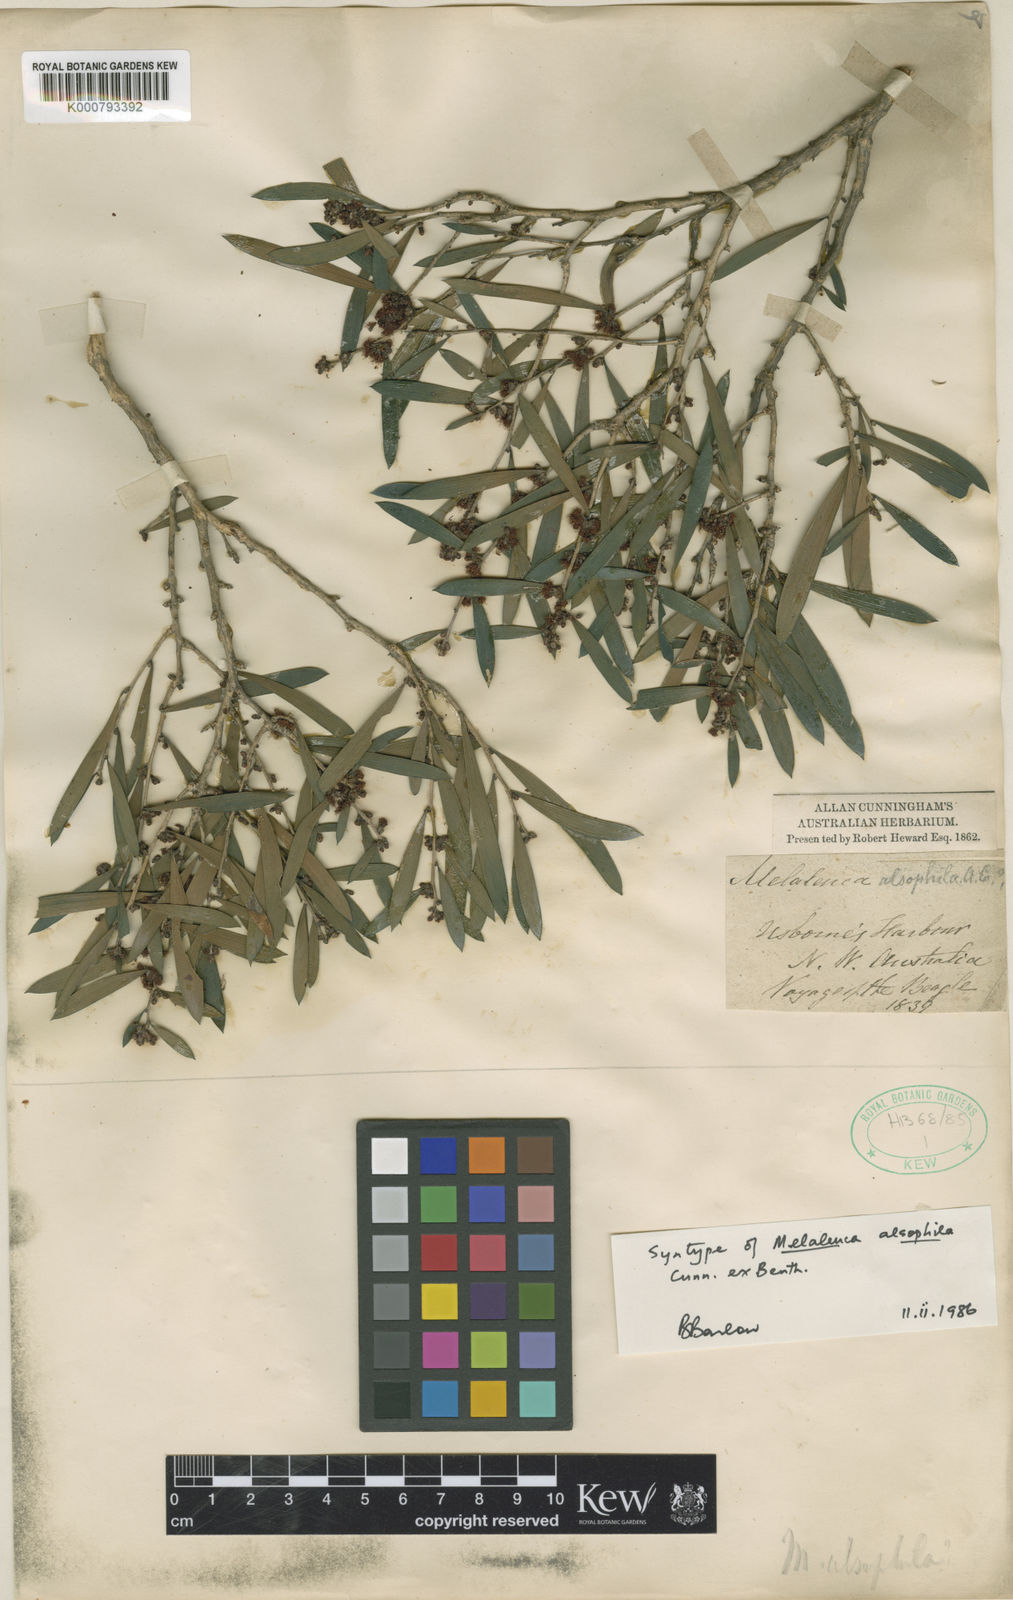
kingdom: Plantae
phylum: Tracheophyta
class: Magnoliopsida
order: Myrtales
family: Myrtaceae
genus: Melaleuca
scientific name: Melaleuca alsophila
